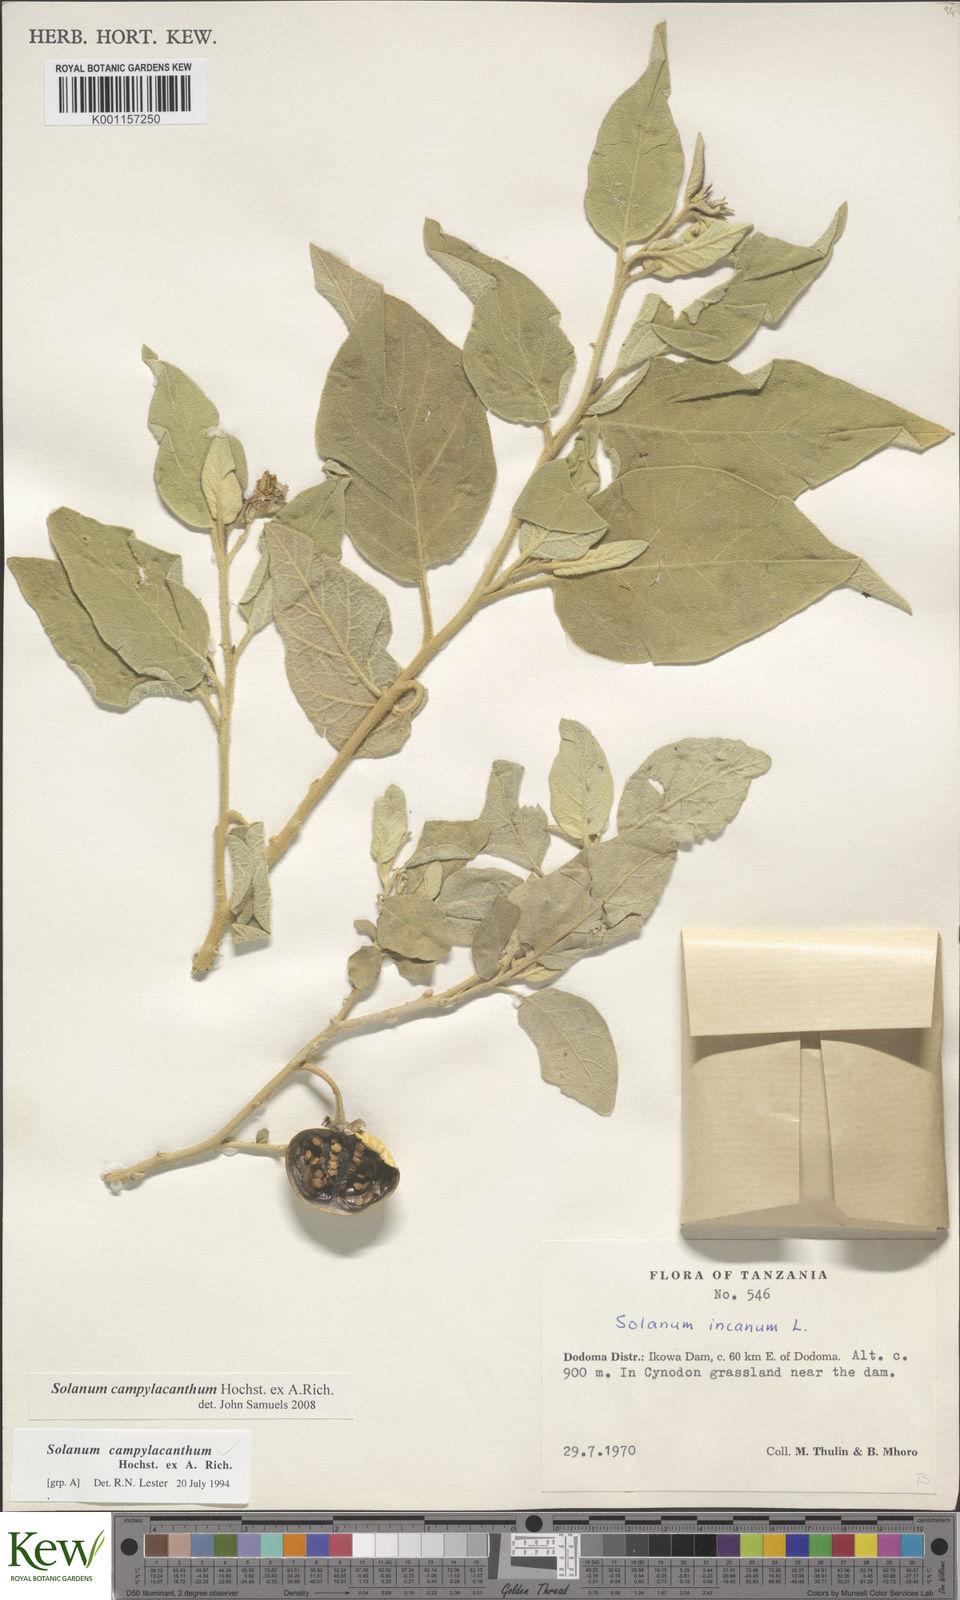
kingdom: Plantae
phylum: Tracheophyta
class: Magnoliopsida
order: Solanales
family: Solanaceae
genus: Solanum
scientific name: Solanum campylacanthum
